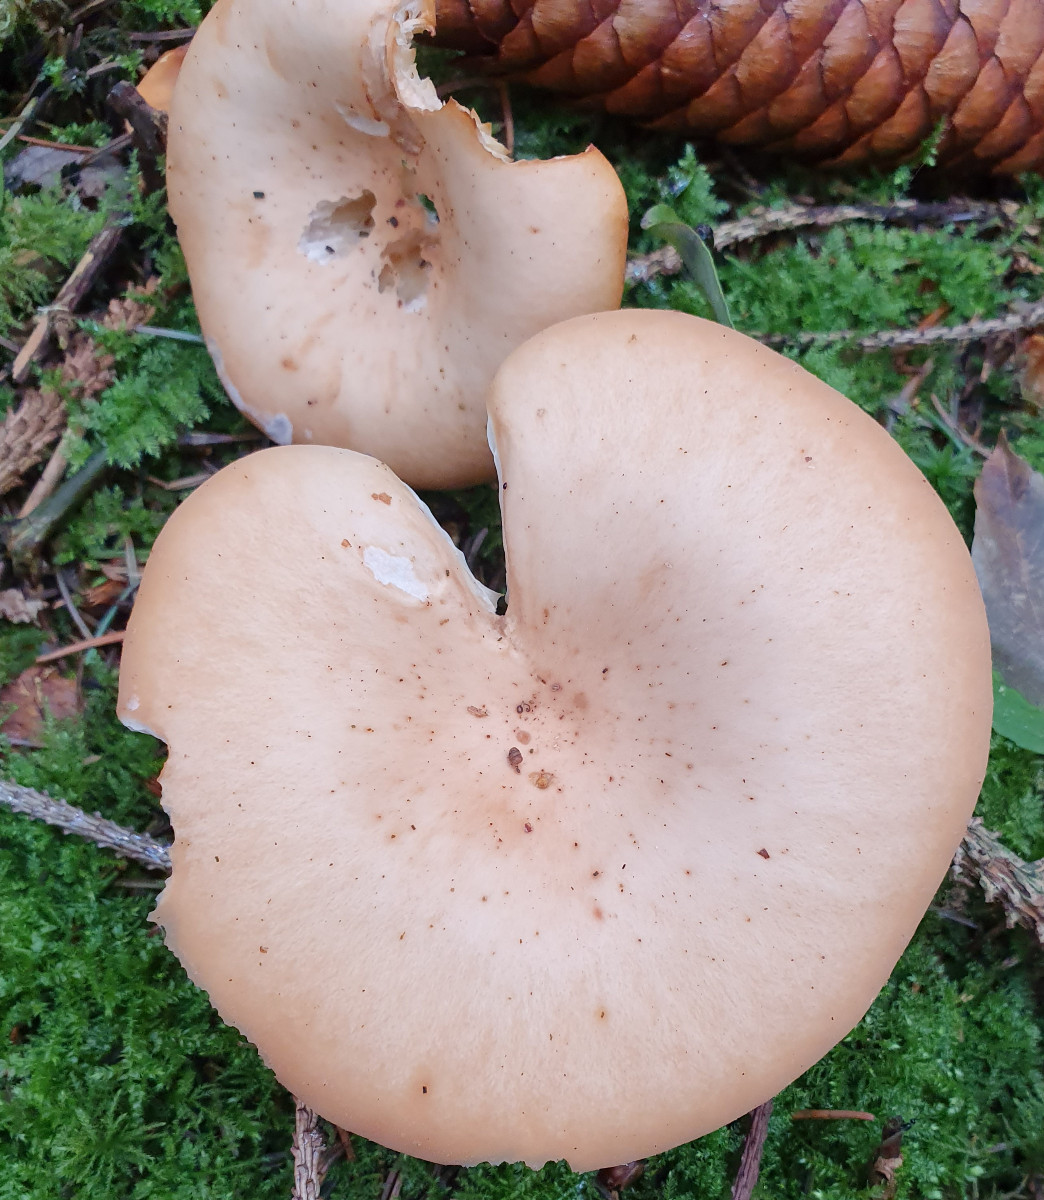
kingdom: Fungi
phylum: Basidiomycota
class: Agaricomycetes
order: Agaricales
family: Tricholomataceae
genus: Paralepista
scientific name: Paralepista flaccida
